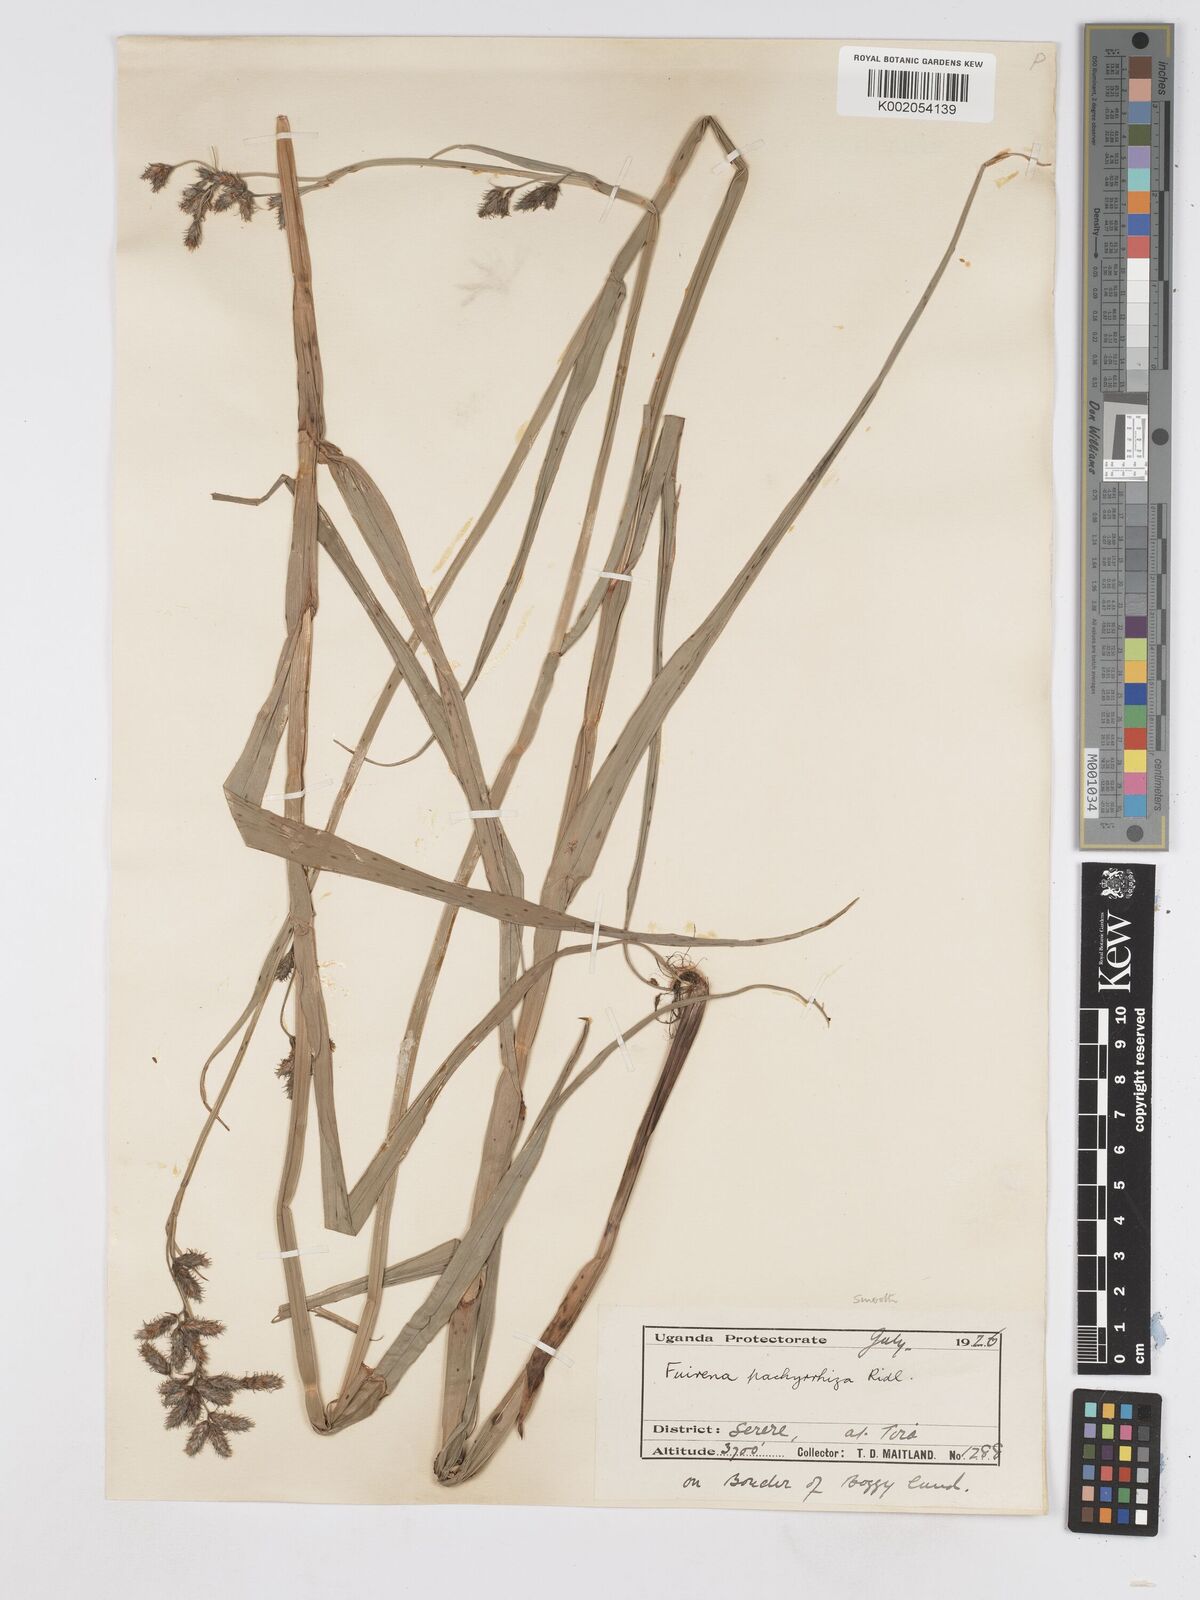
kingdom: Plantae
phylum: Tracheophyta
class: Liliopsida
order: Poales
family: Cyperaceae
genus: Fuirena
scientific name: Fuirena pachyrrhiza
